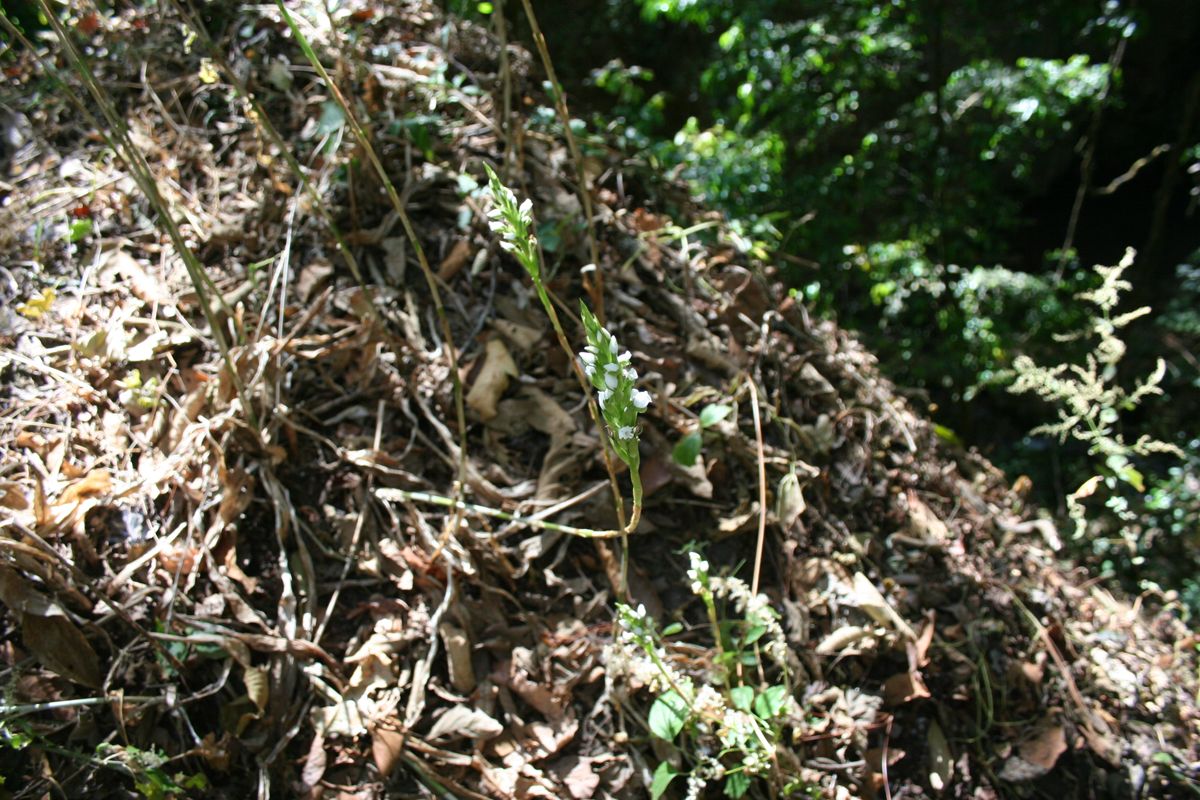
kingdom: Plantae
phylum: Tracheophyta
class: Liliopsida
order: Asparagales
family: Orchidaceae
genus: Aulosepalum
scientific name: Aulosepalum hemichrea
